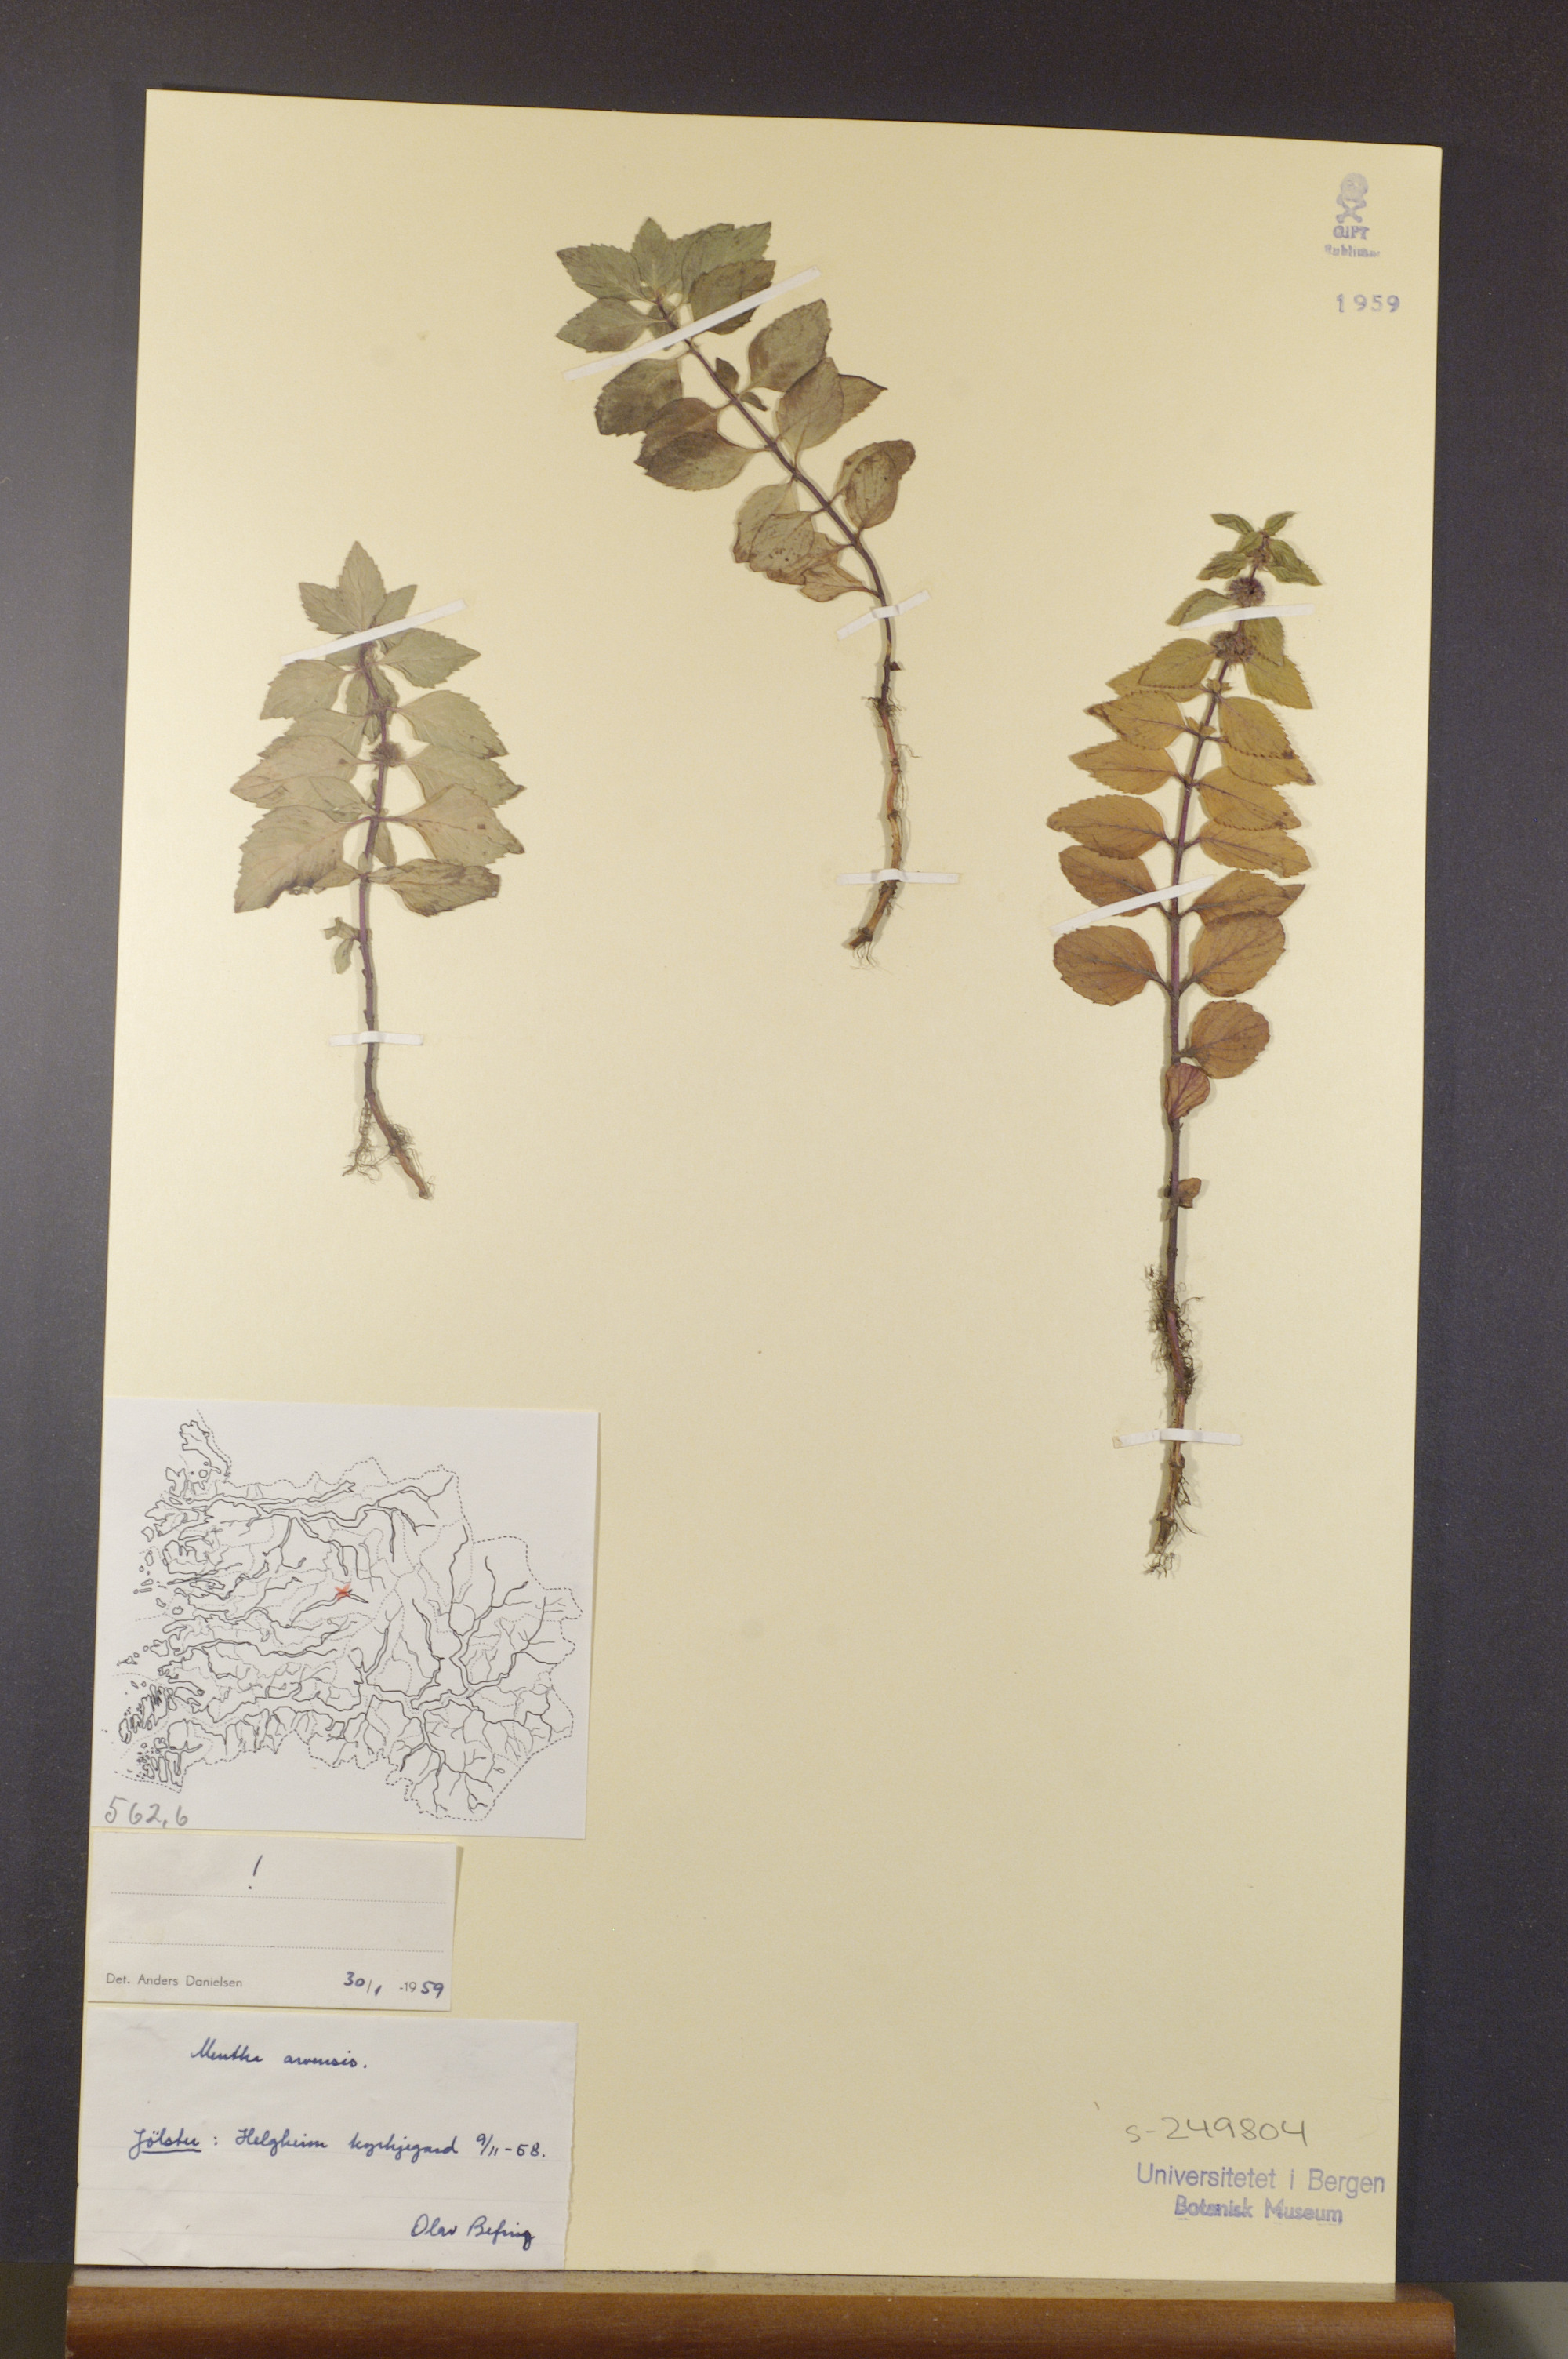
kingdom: Plantae
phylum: Tracheophyta
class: Magnoliopsida
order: Lamiales
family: Lamiaceae
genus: Mentha
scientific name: Mentha arvensis
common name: Corn mint
